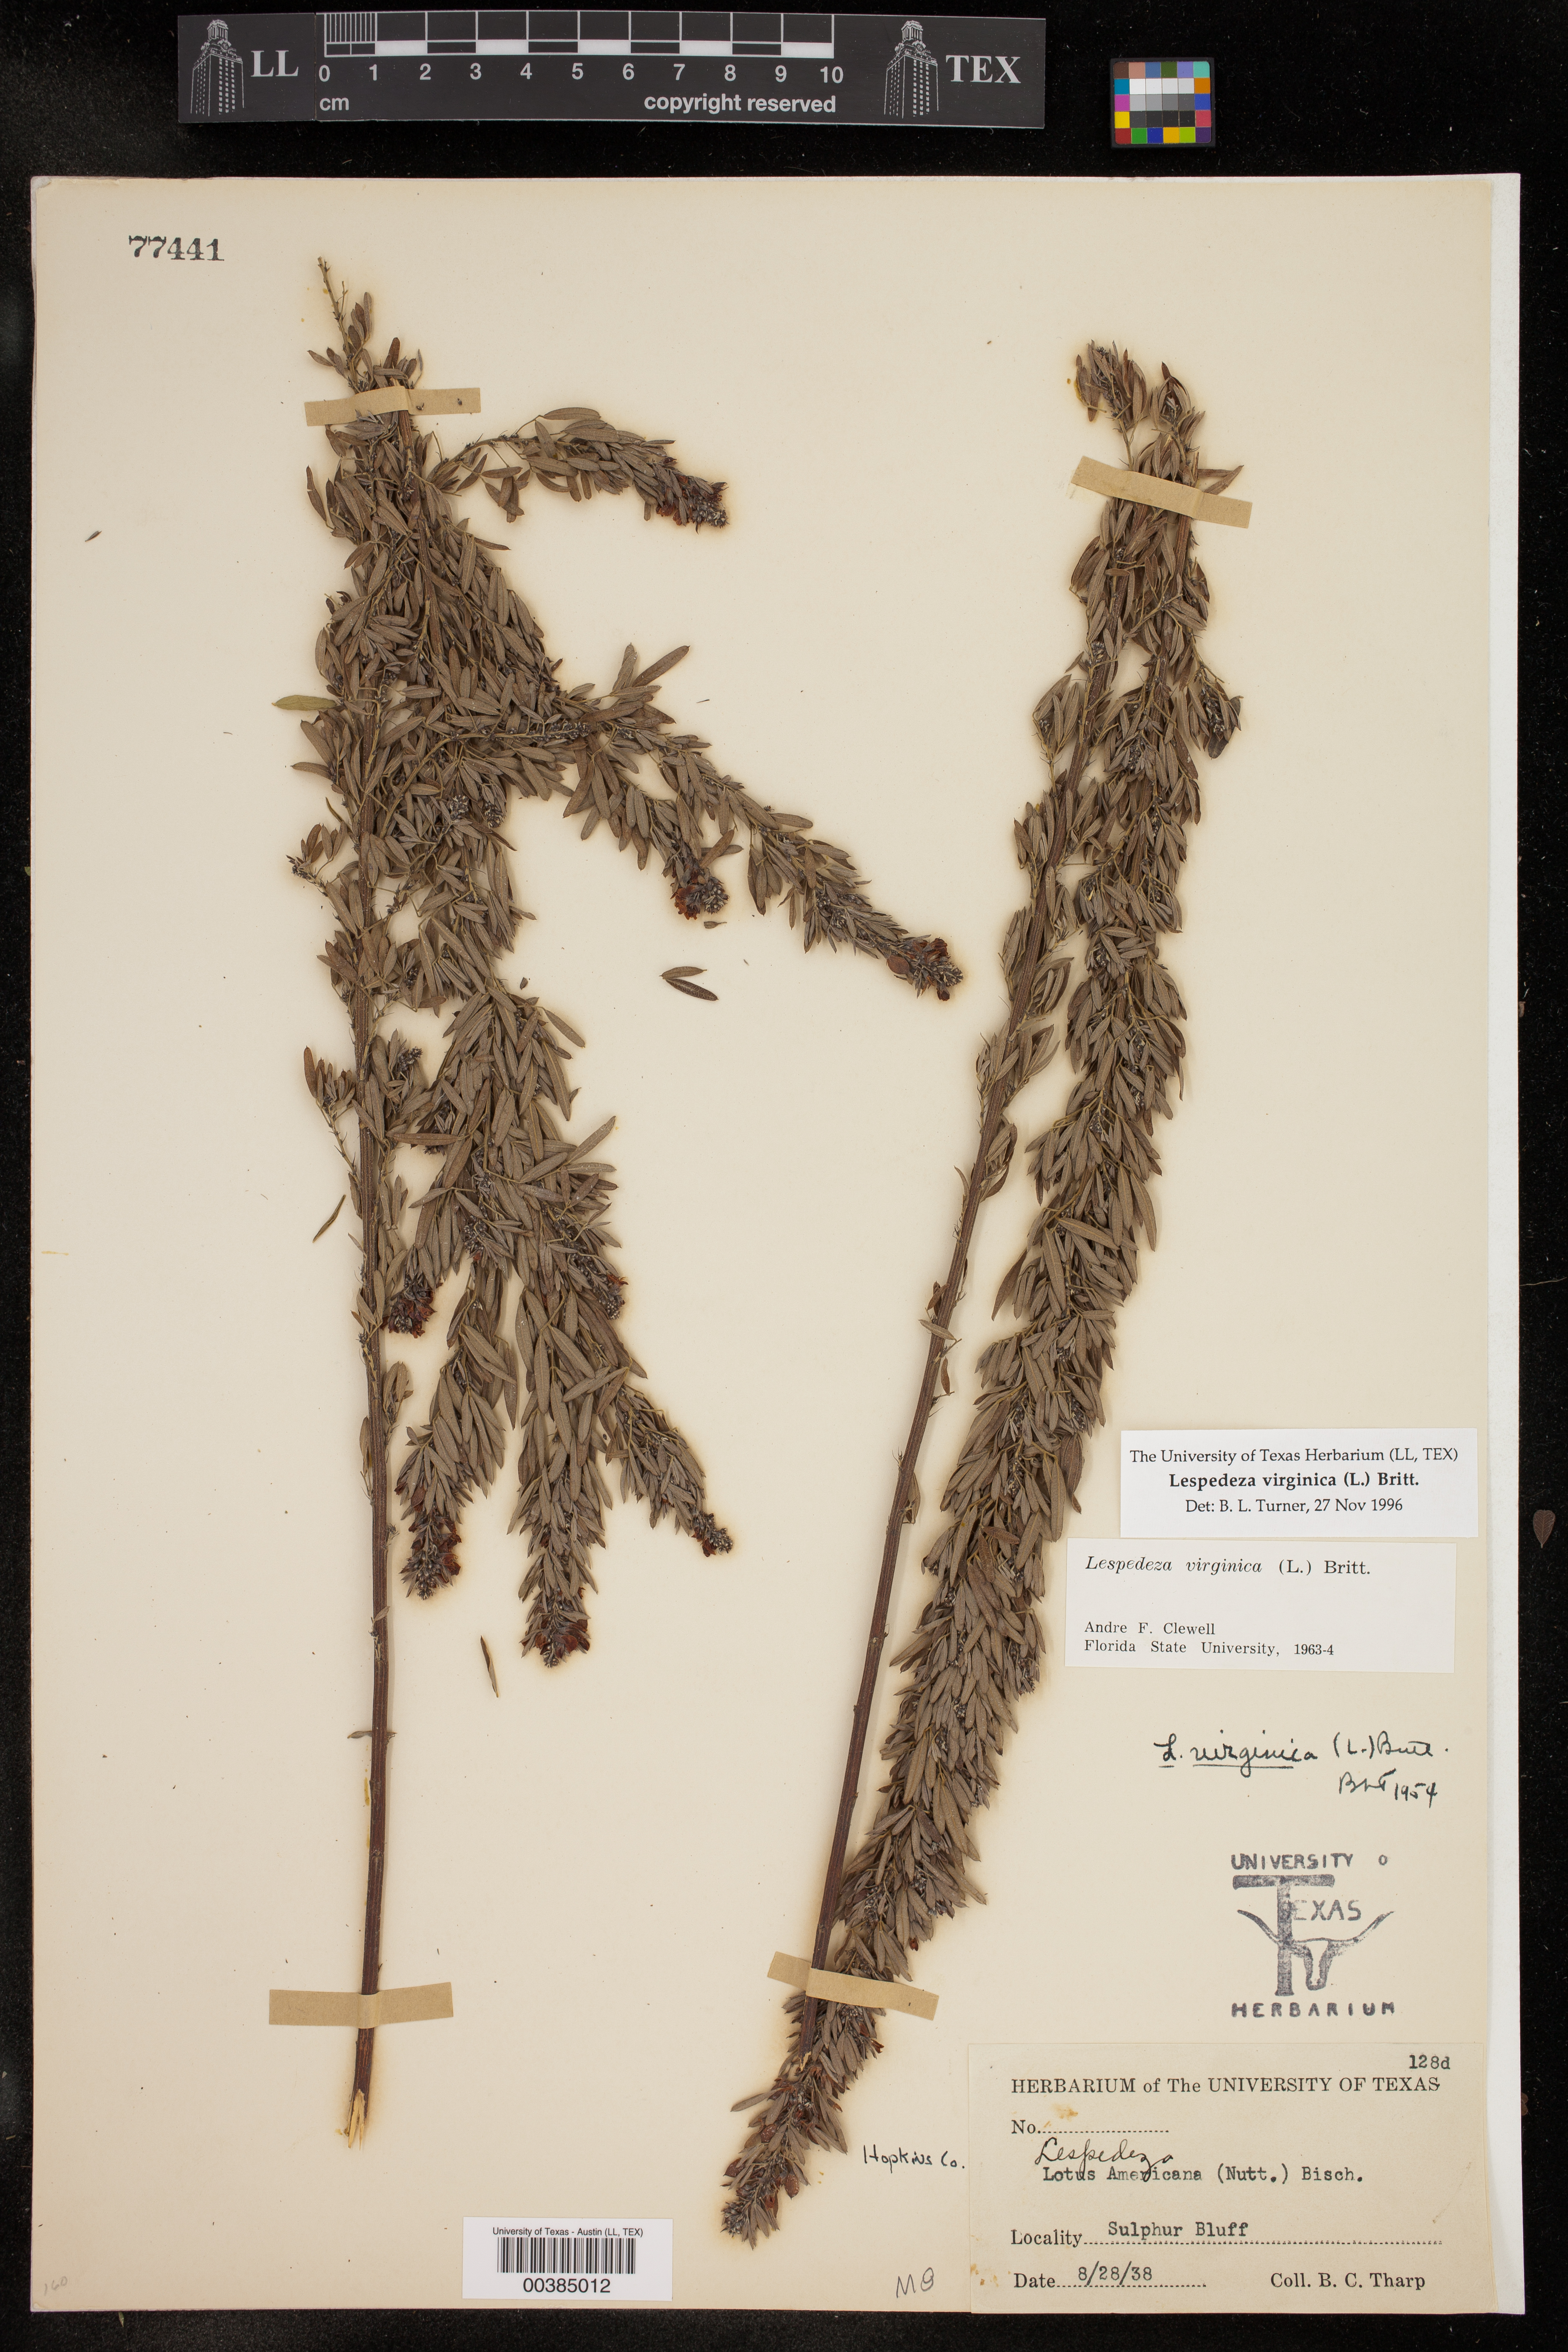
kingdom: Plantae
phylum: Tracheophyta
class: Magnoliopsida
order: Fabales
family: Fabaceae
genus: Lespedeza
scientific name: Lespedeza virginica
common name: Slender bush-clover
